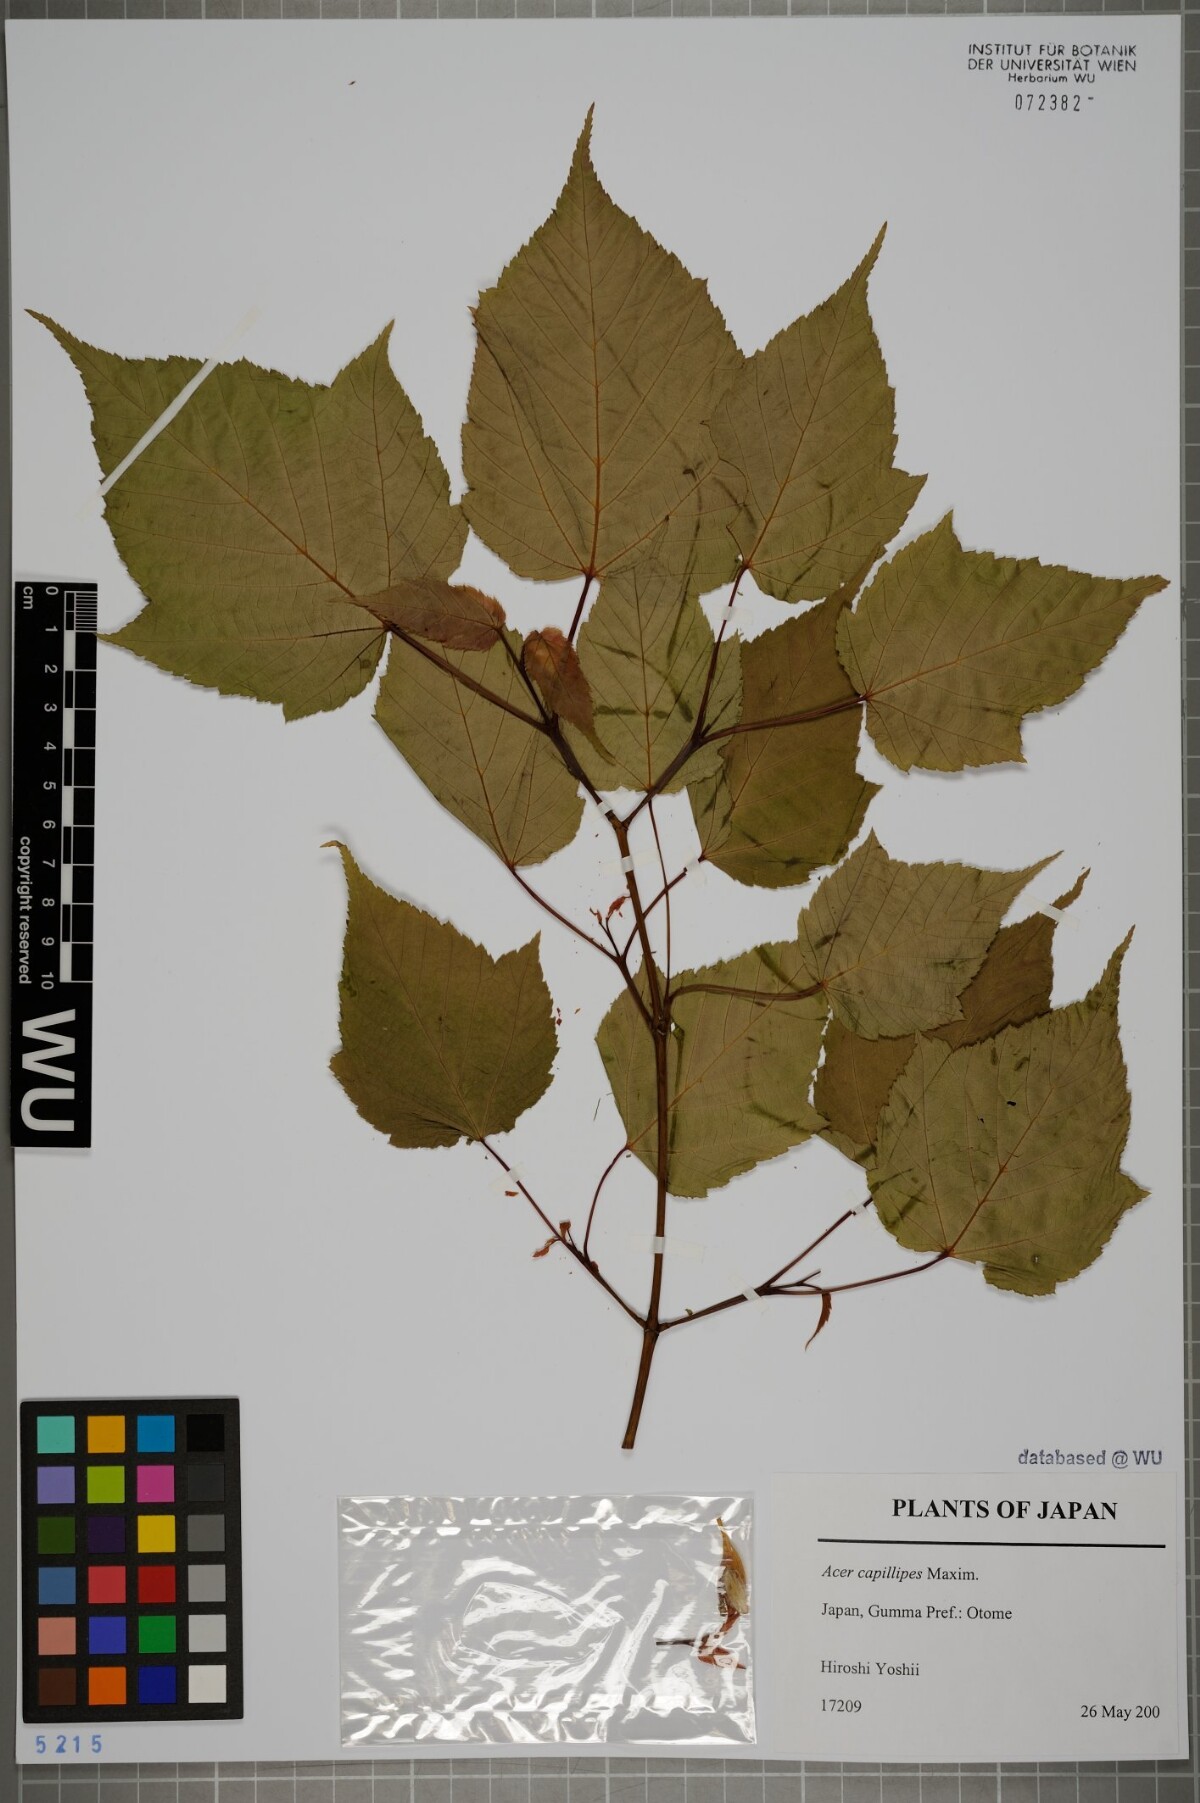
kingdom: Plantae
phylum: Tracheophyta
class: Magnoliopsida
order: Sapindales
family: Sapindaceae
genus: Acer
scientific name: Acer capillipes
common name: Kyushu maple
